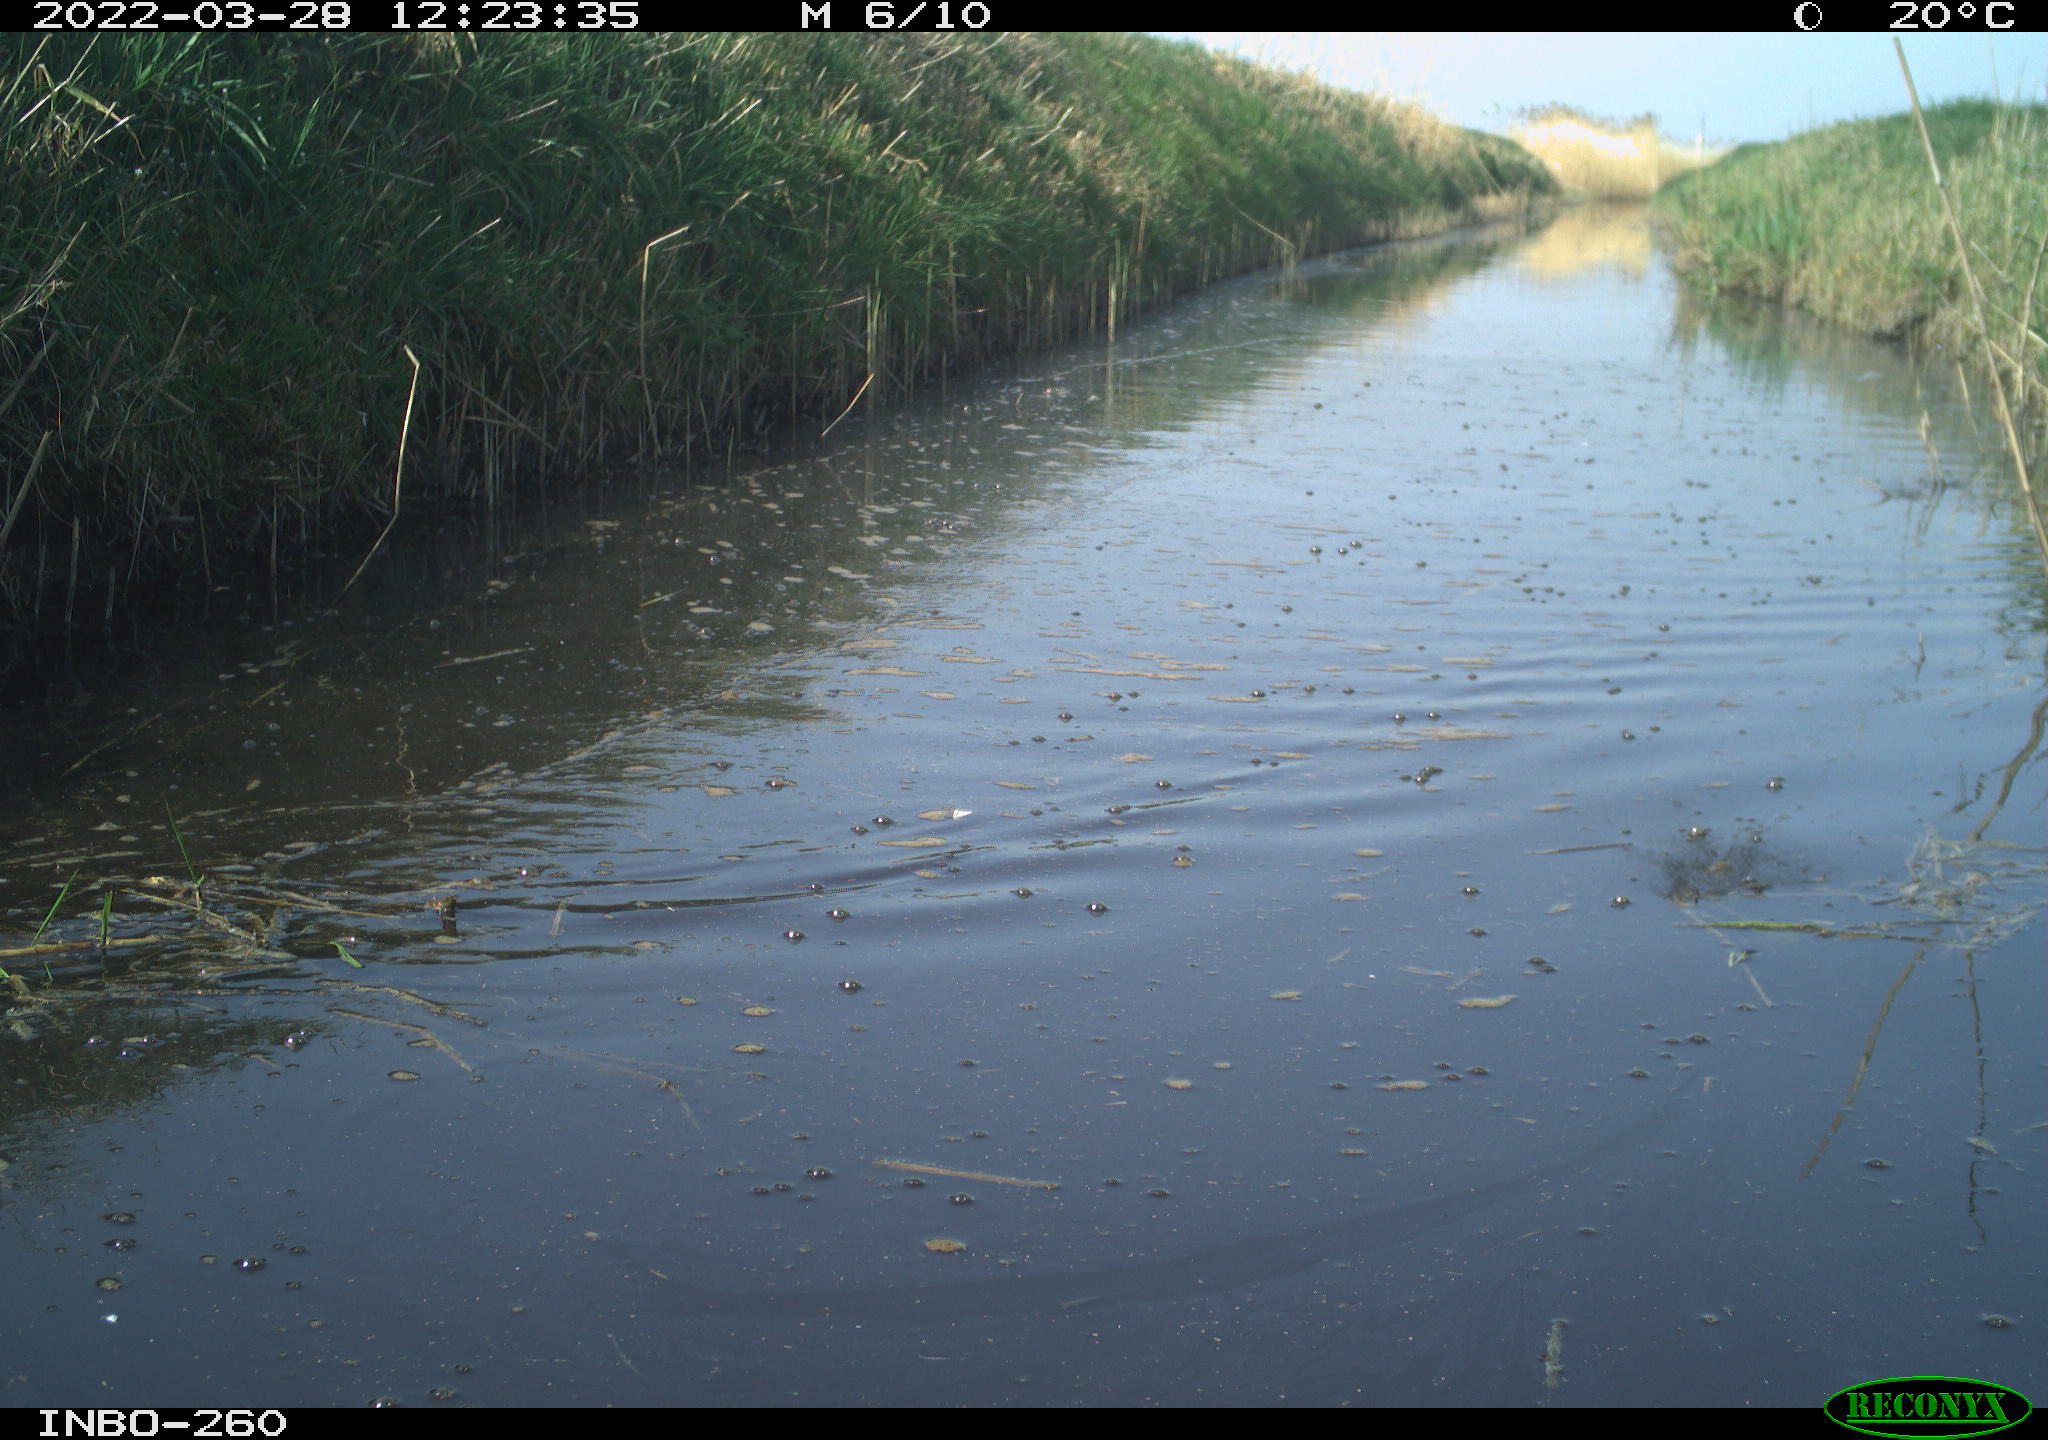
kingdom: Animalia
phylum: Chordata
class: Aves
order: Gruiformes
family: Rallidae
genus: Fulica
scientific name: Fulica atra
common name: Eurasian coot
